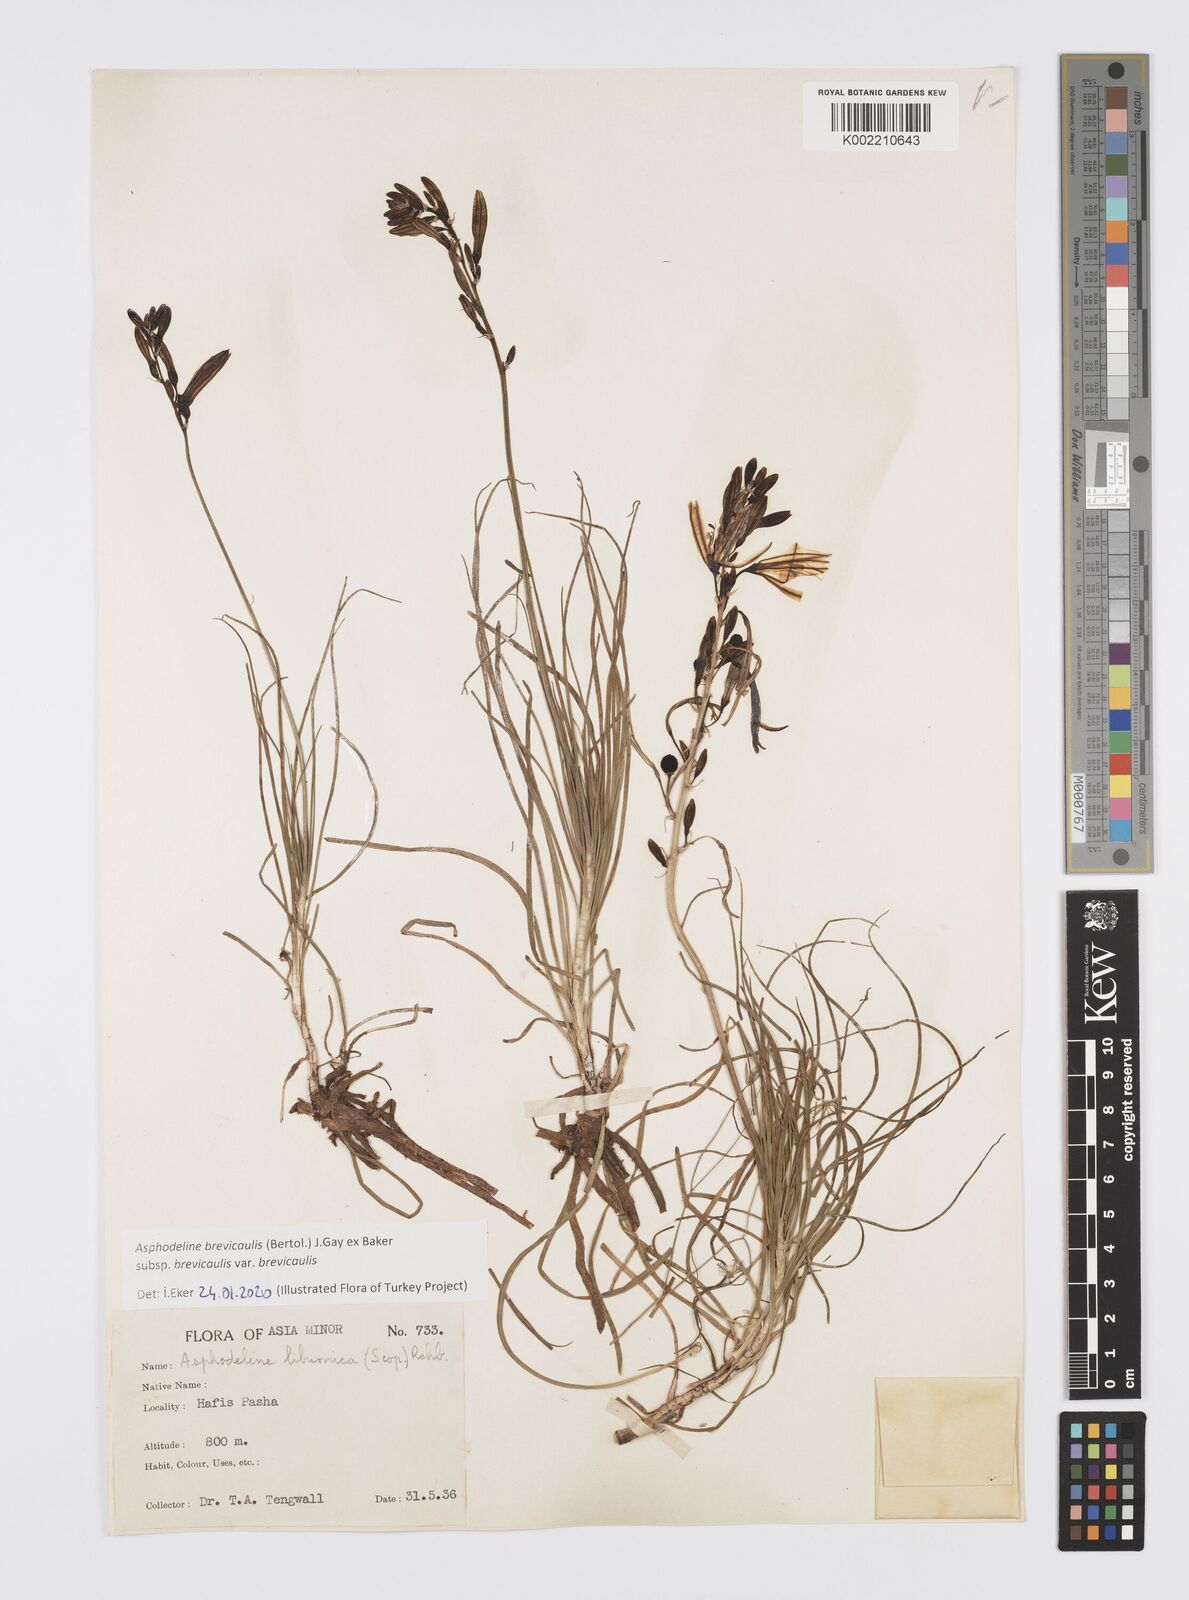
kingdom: Plantae
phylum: Tracheophyta
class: Liliopsida
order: Asparagales
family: Asphodelaceae
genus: Asphodeline
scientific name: Asphodeline brevicaulis
